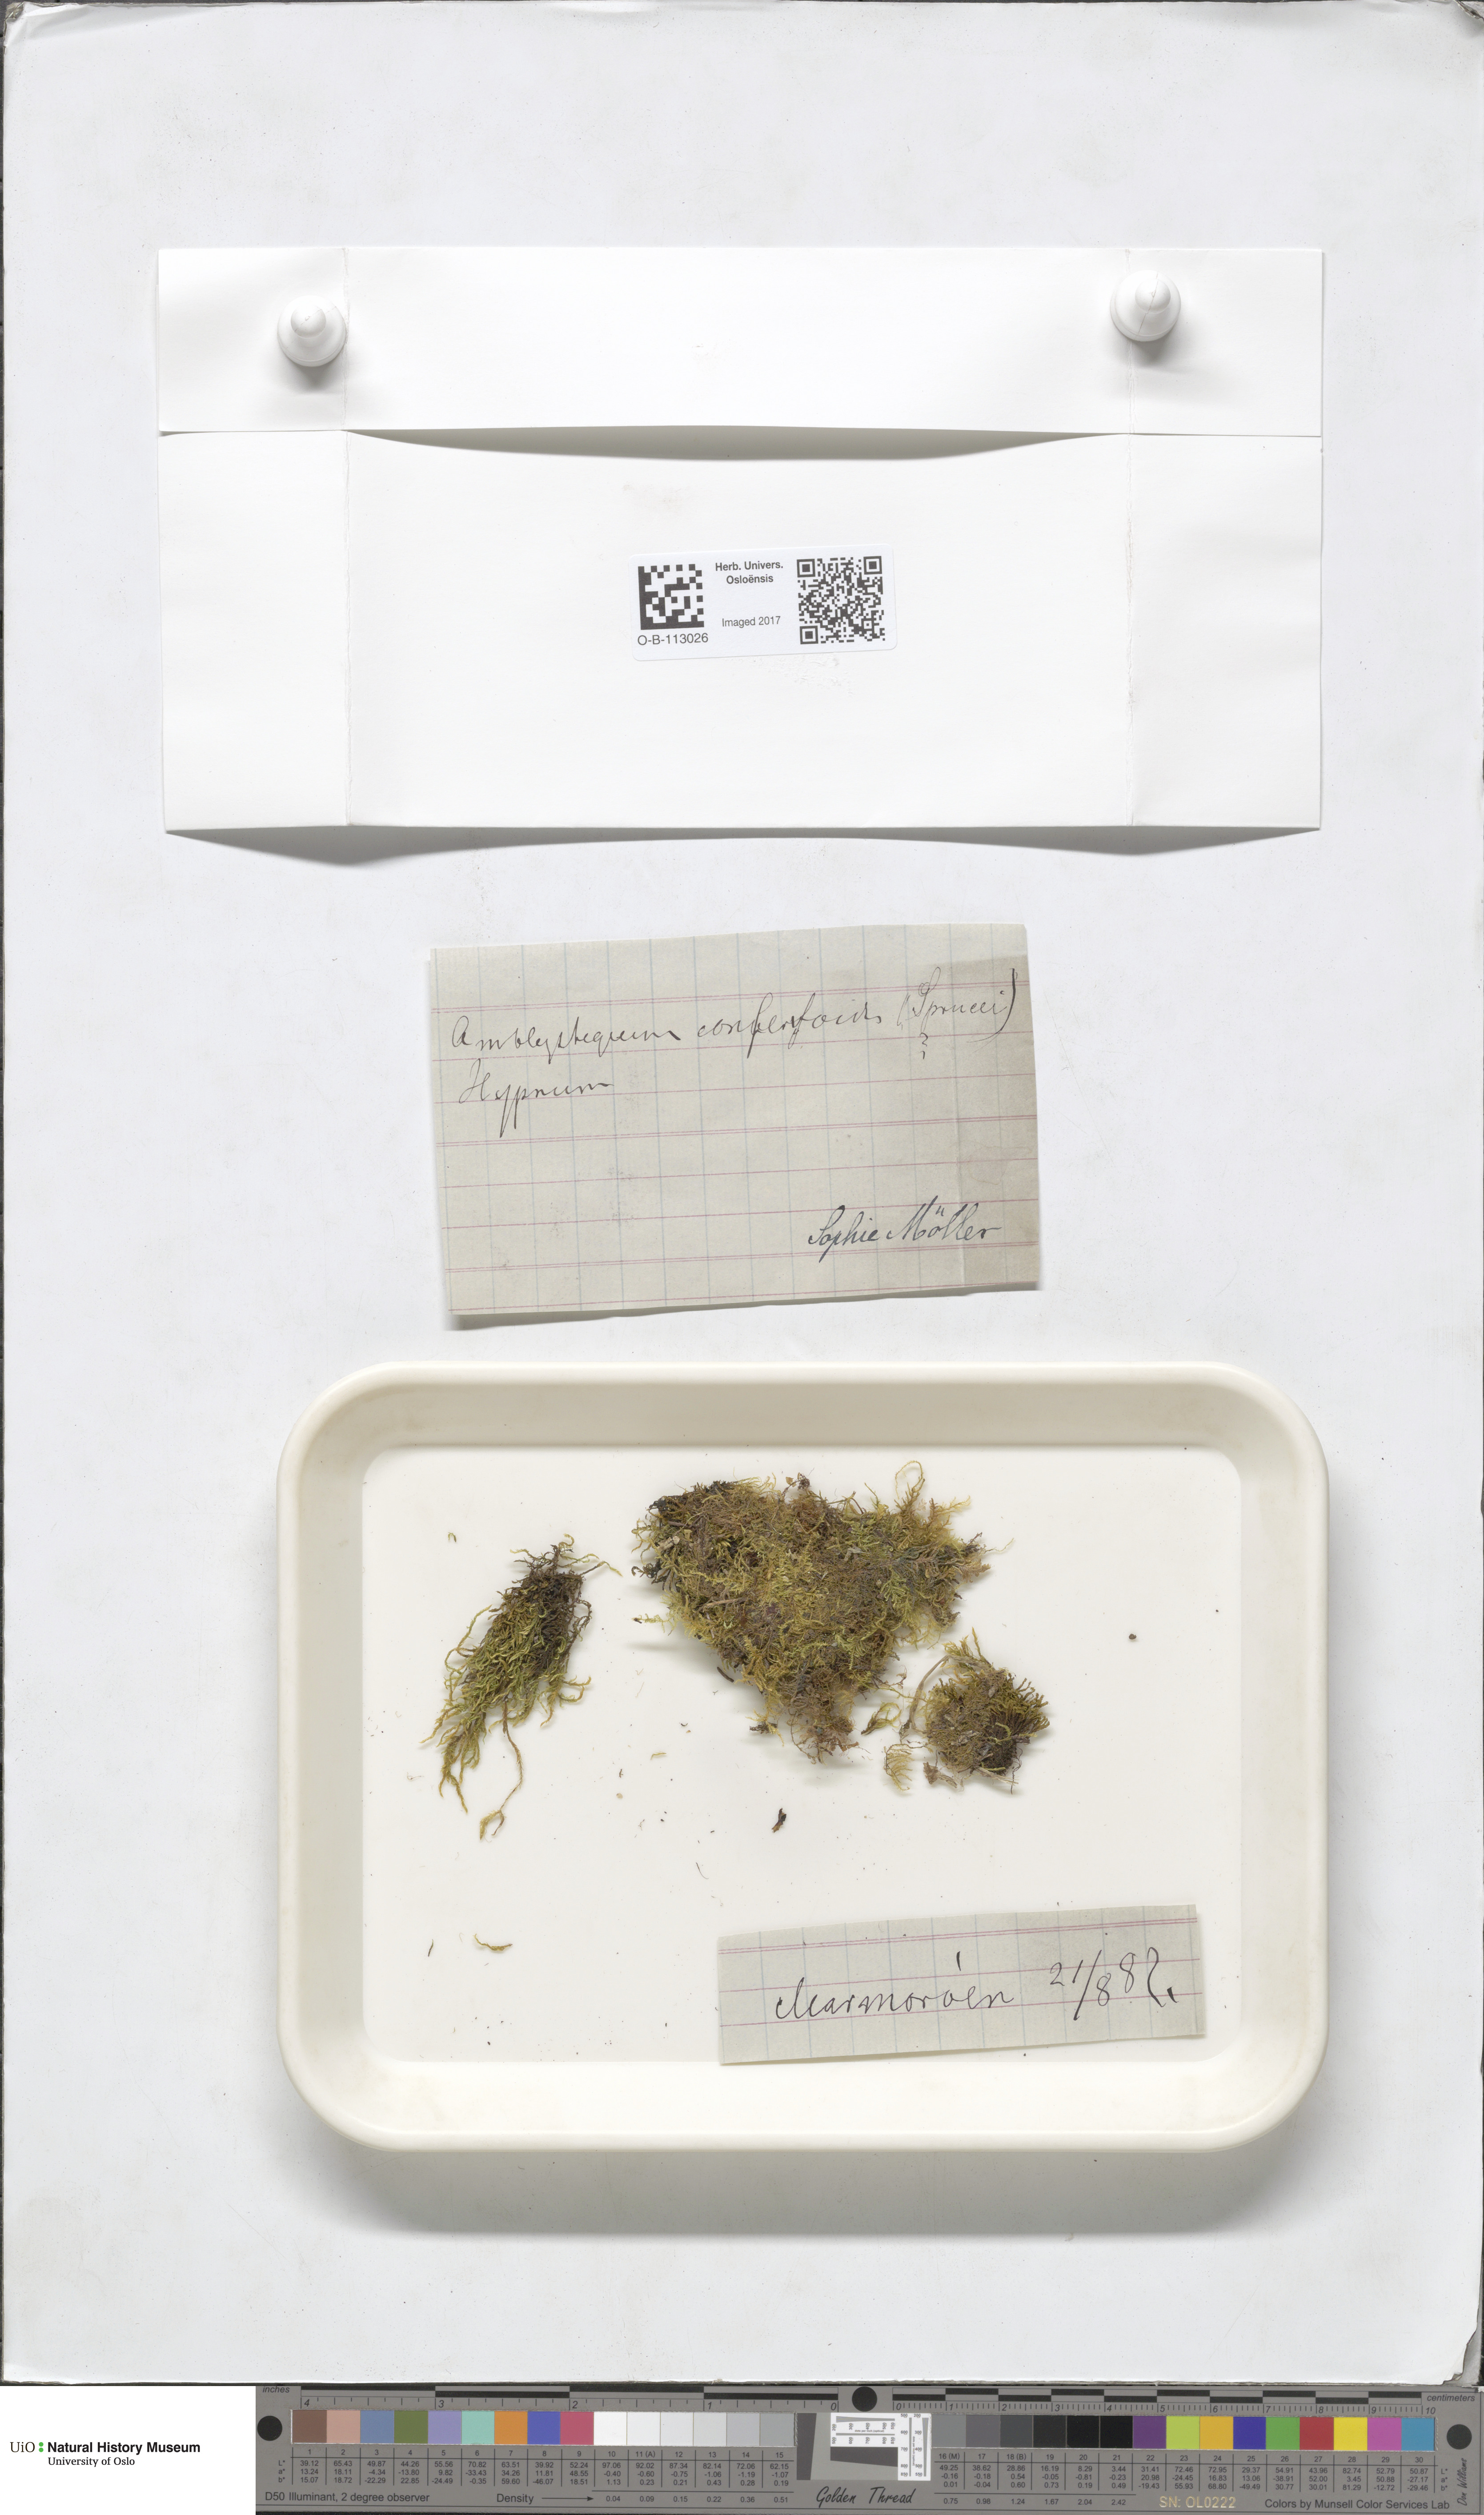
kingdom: Plantae
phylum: Bryophyta
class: Bryopsida
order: Hypnales
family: Amblystegiaceae
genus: Serpoleskea
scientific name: Serpoleskea confervoides
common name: Alga-like matted-moss
